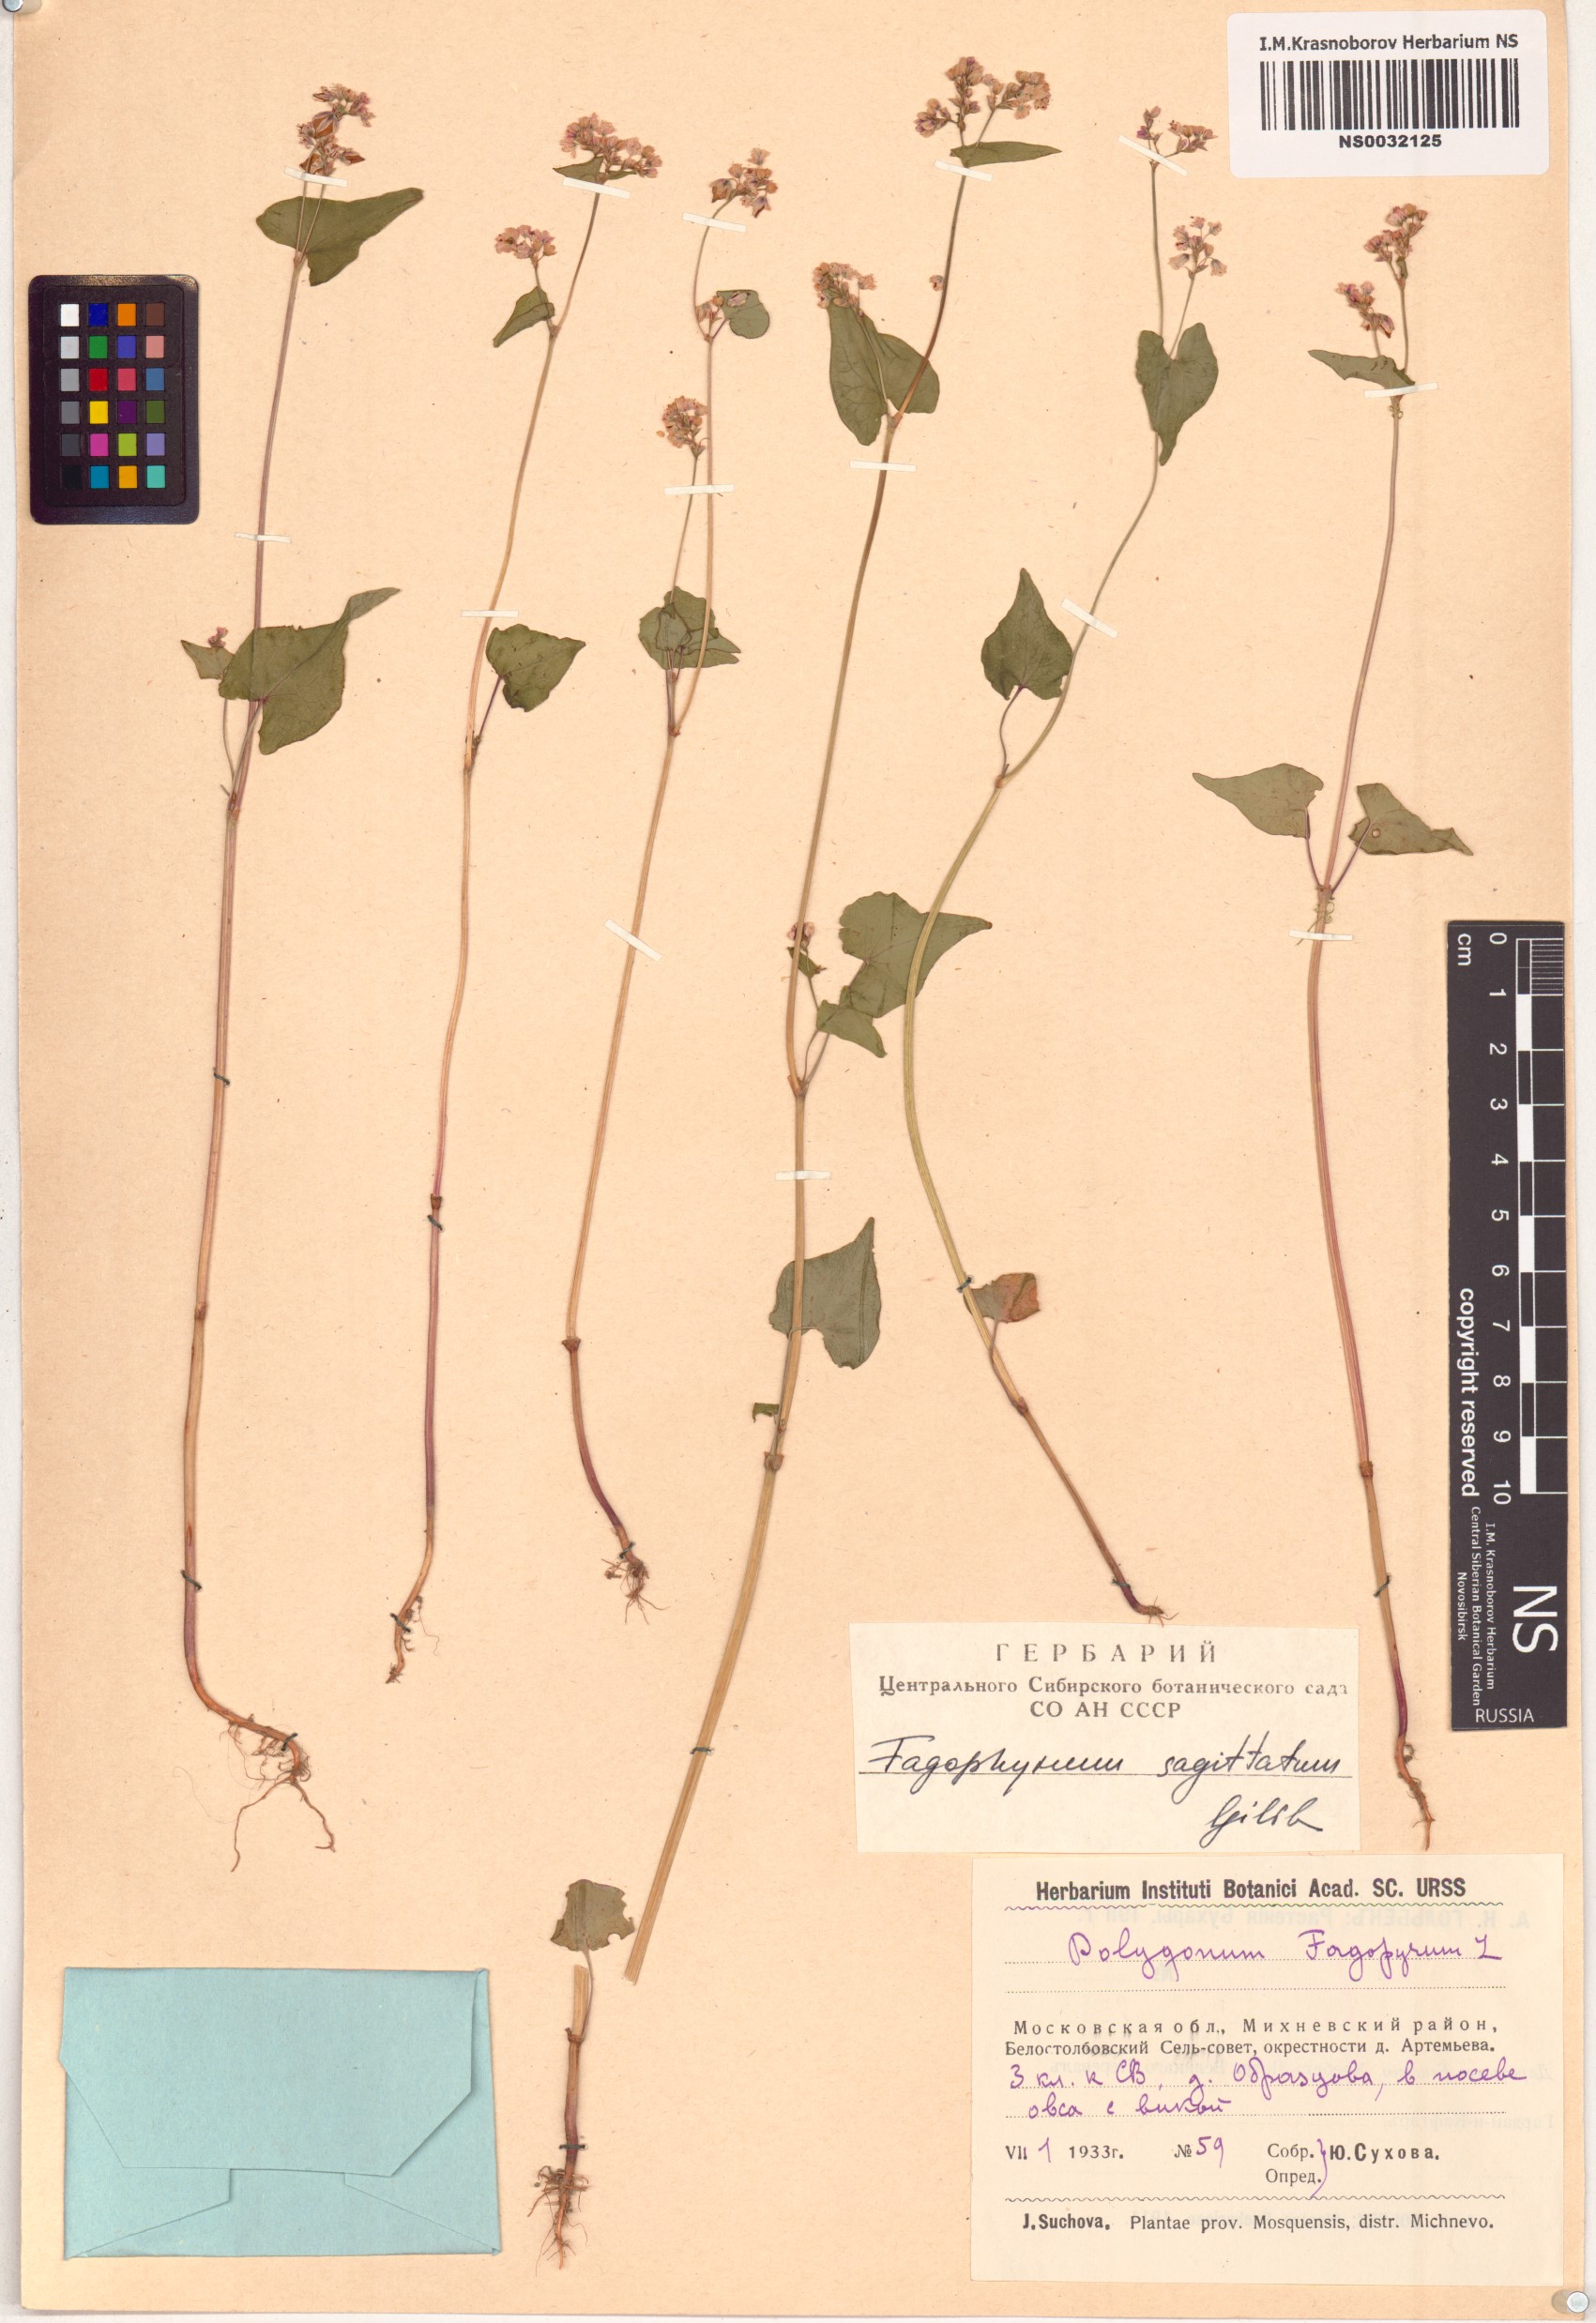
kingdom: Plantae
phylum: Tracheophyta
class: Magnoliopsida
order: Caryophyllales
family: Polygonaceae
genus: Fagopyrum
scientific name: Fagopyrum esculentum
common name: Buckwheat
